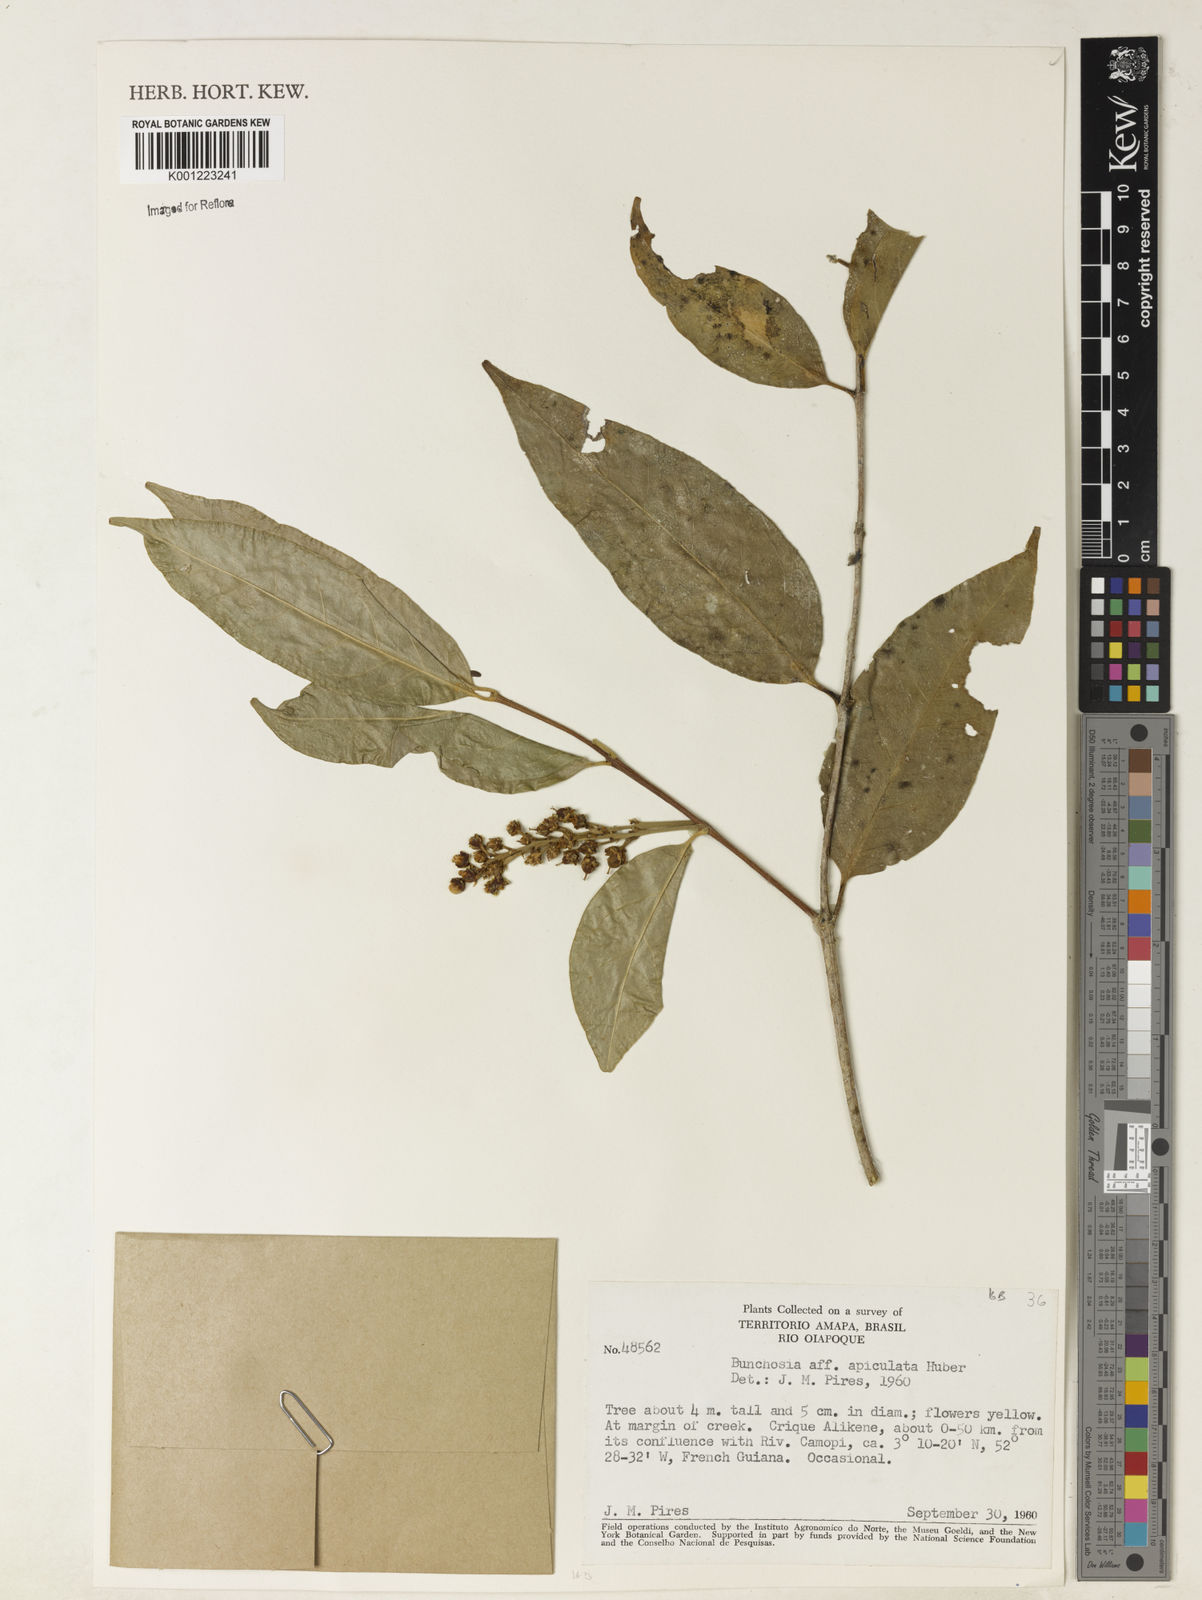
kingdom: Plantae
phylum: Tracheophyta
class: Magnoliopsida
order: Malpighiales
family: Malpighiaceae
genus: Bunchosia
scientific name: Bunchosia
